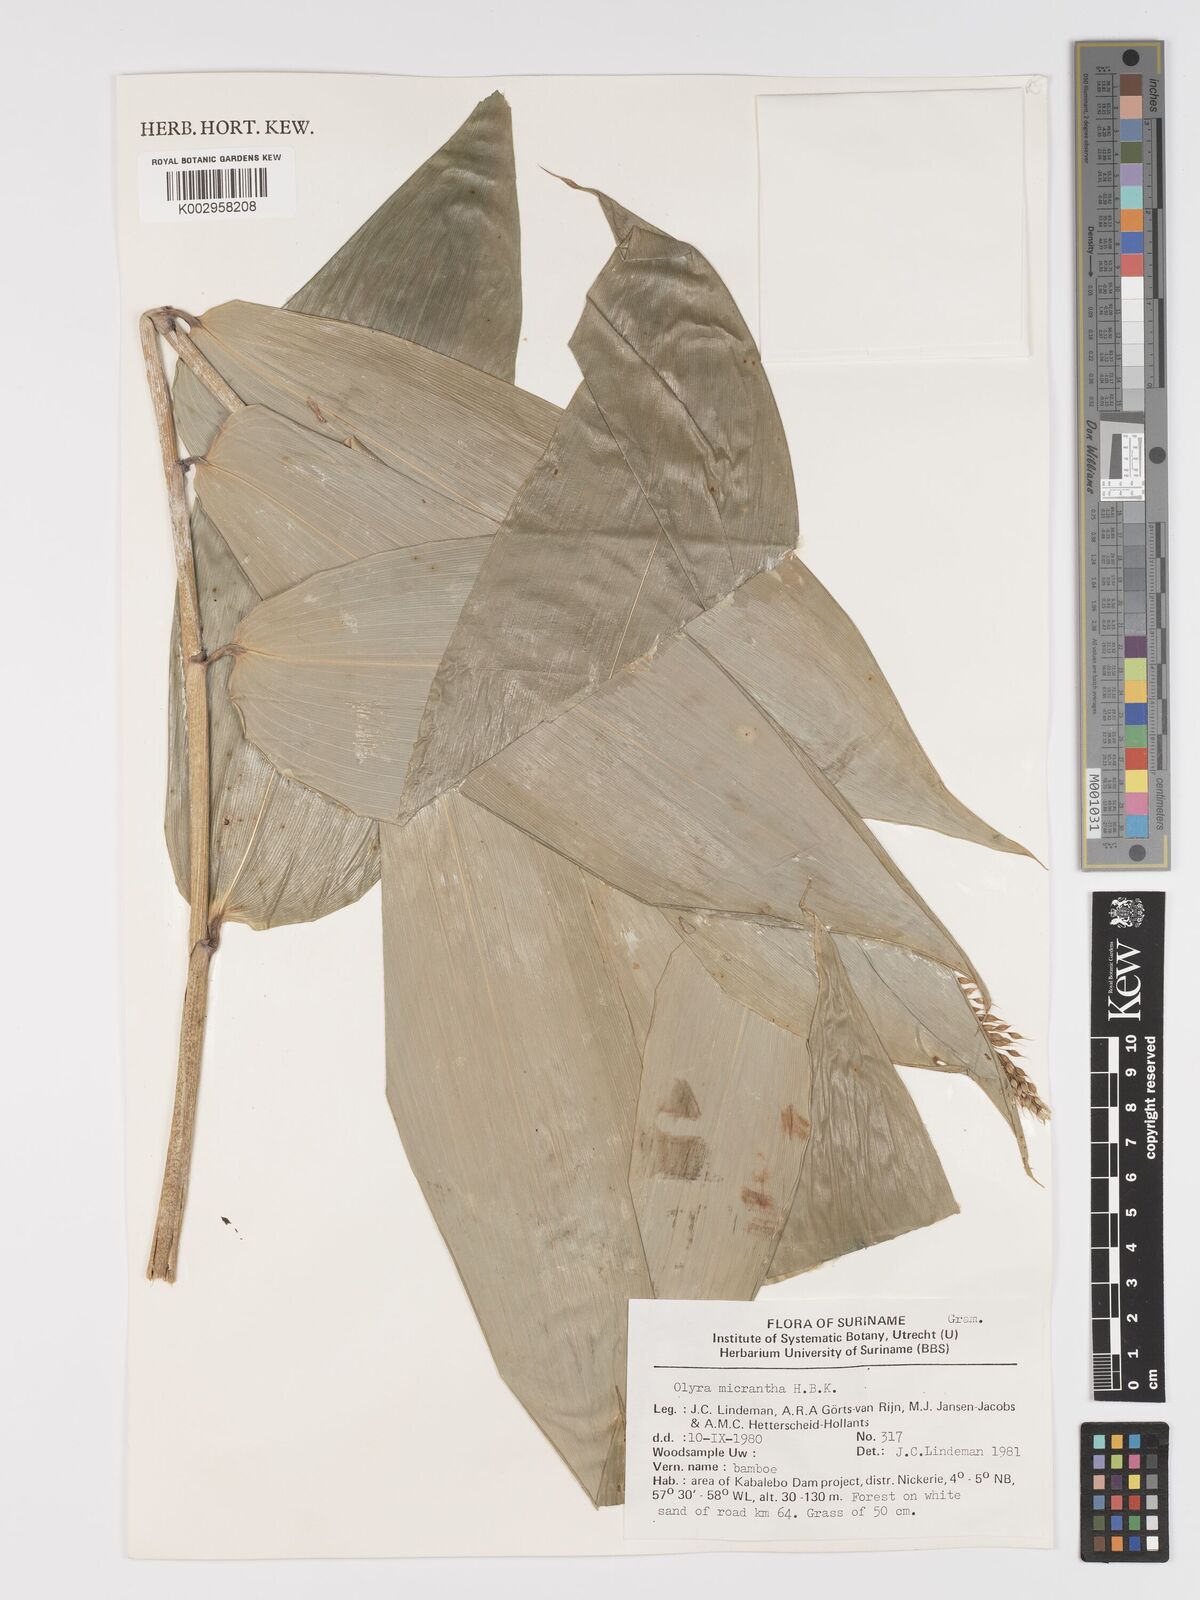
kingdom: Plantae
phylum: Tracheophyta
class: Liliopsida
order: Poales
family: Poaceae
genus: Taquara
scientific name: Taquara micrantha
